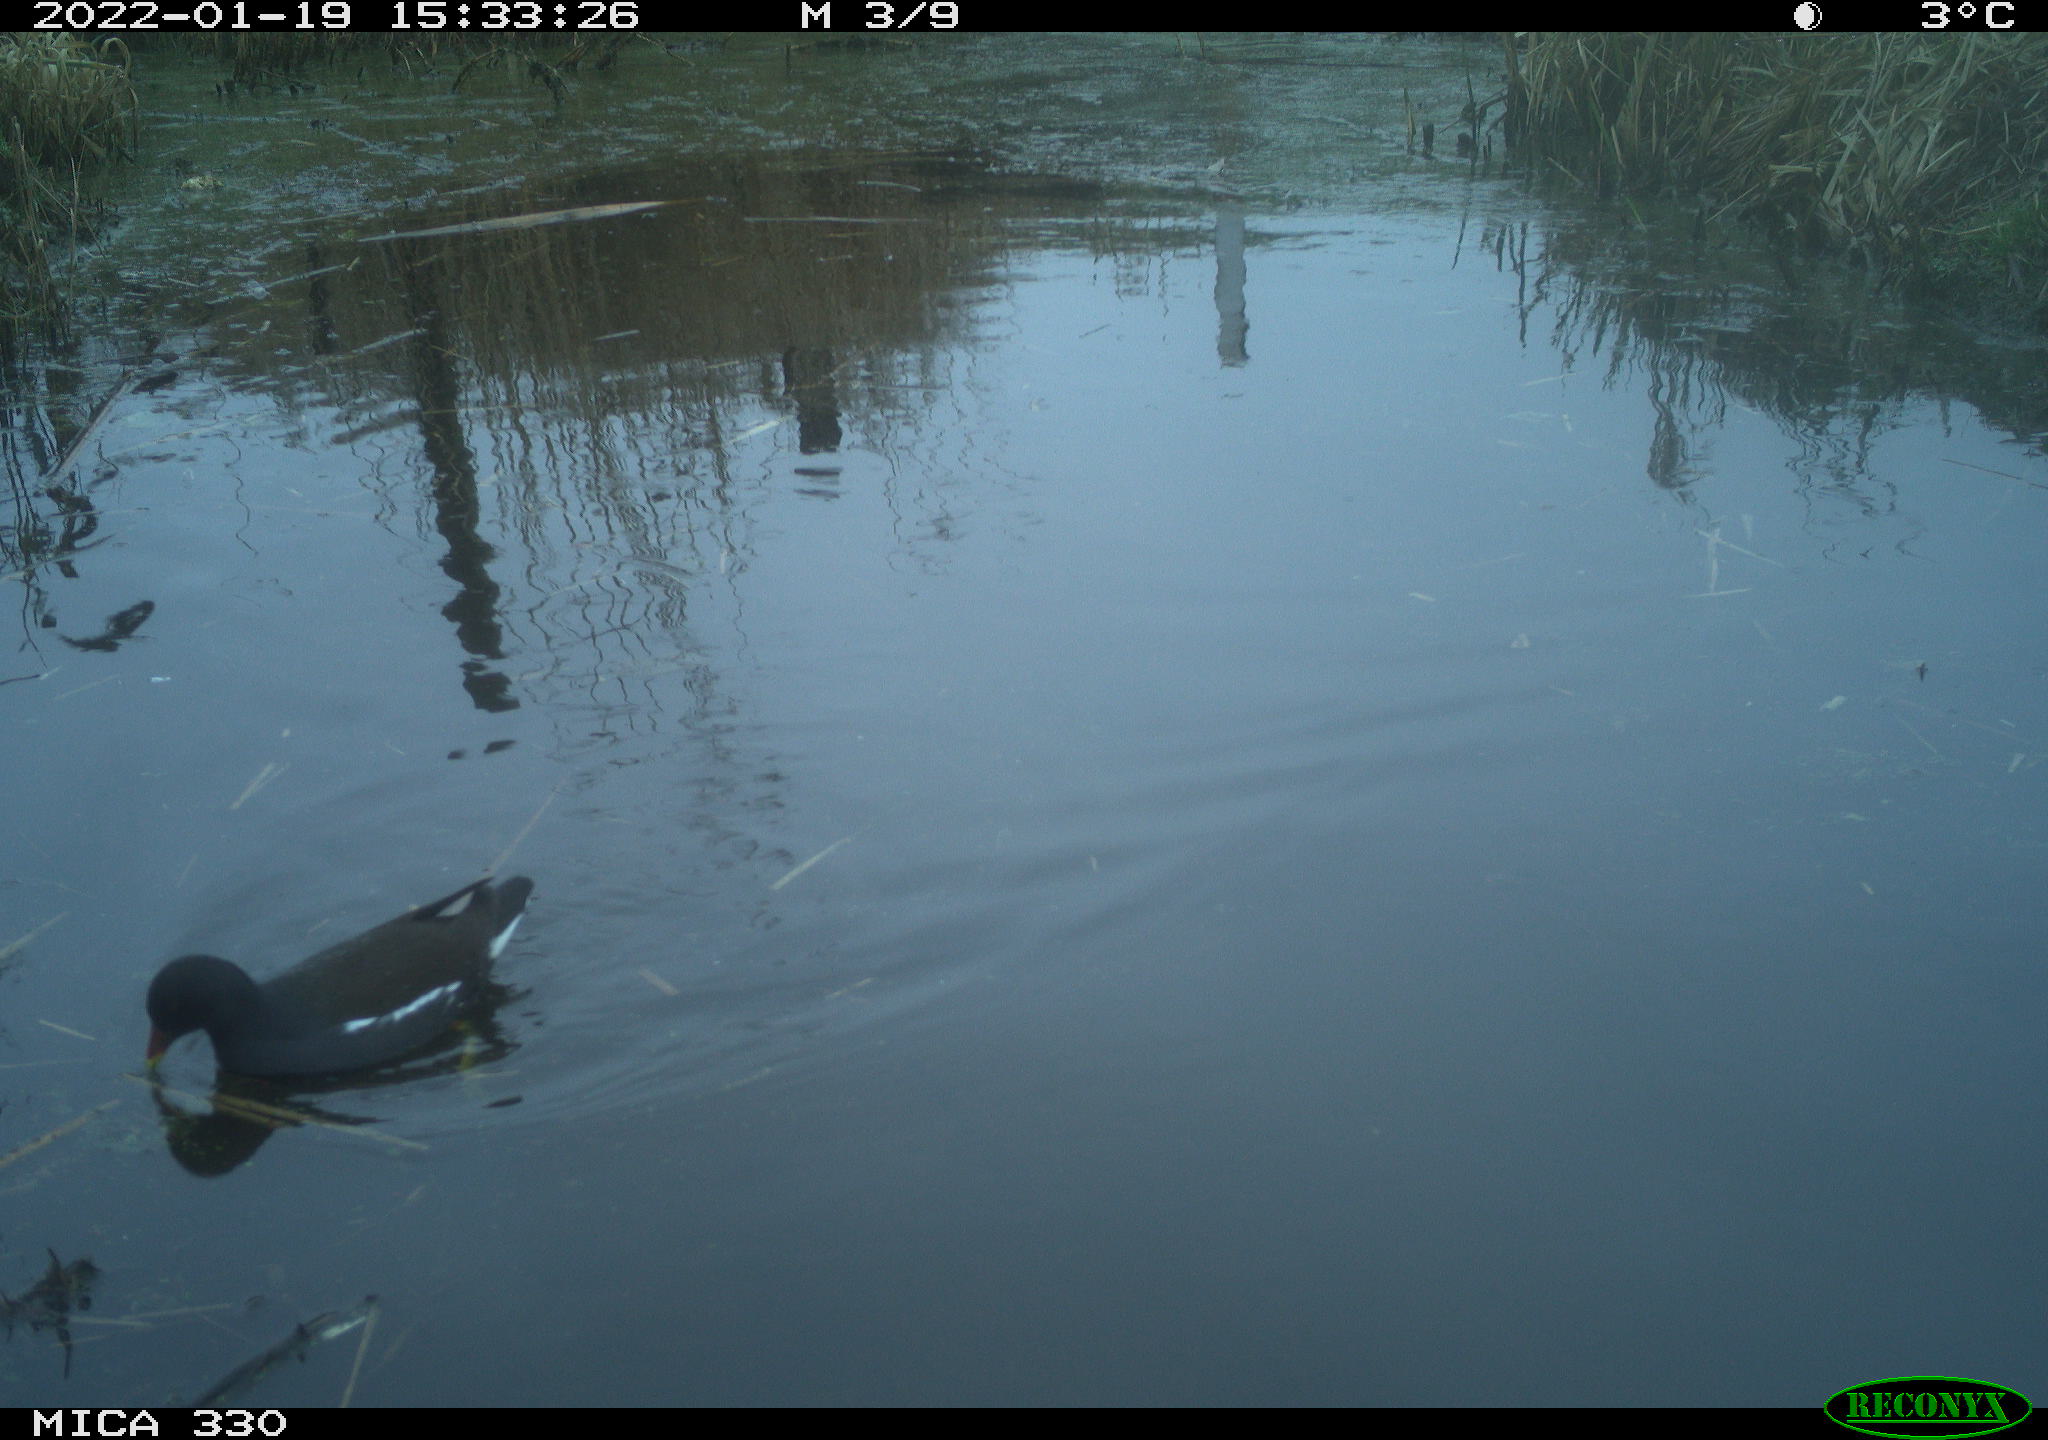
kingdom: Animalia
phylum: Chordata
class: Aves
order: Gruiformes
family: Rallidae
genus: Gallinula
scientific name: Gallinula chloropus
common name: Common moorhen
